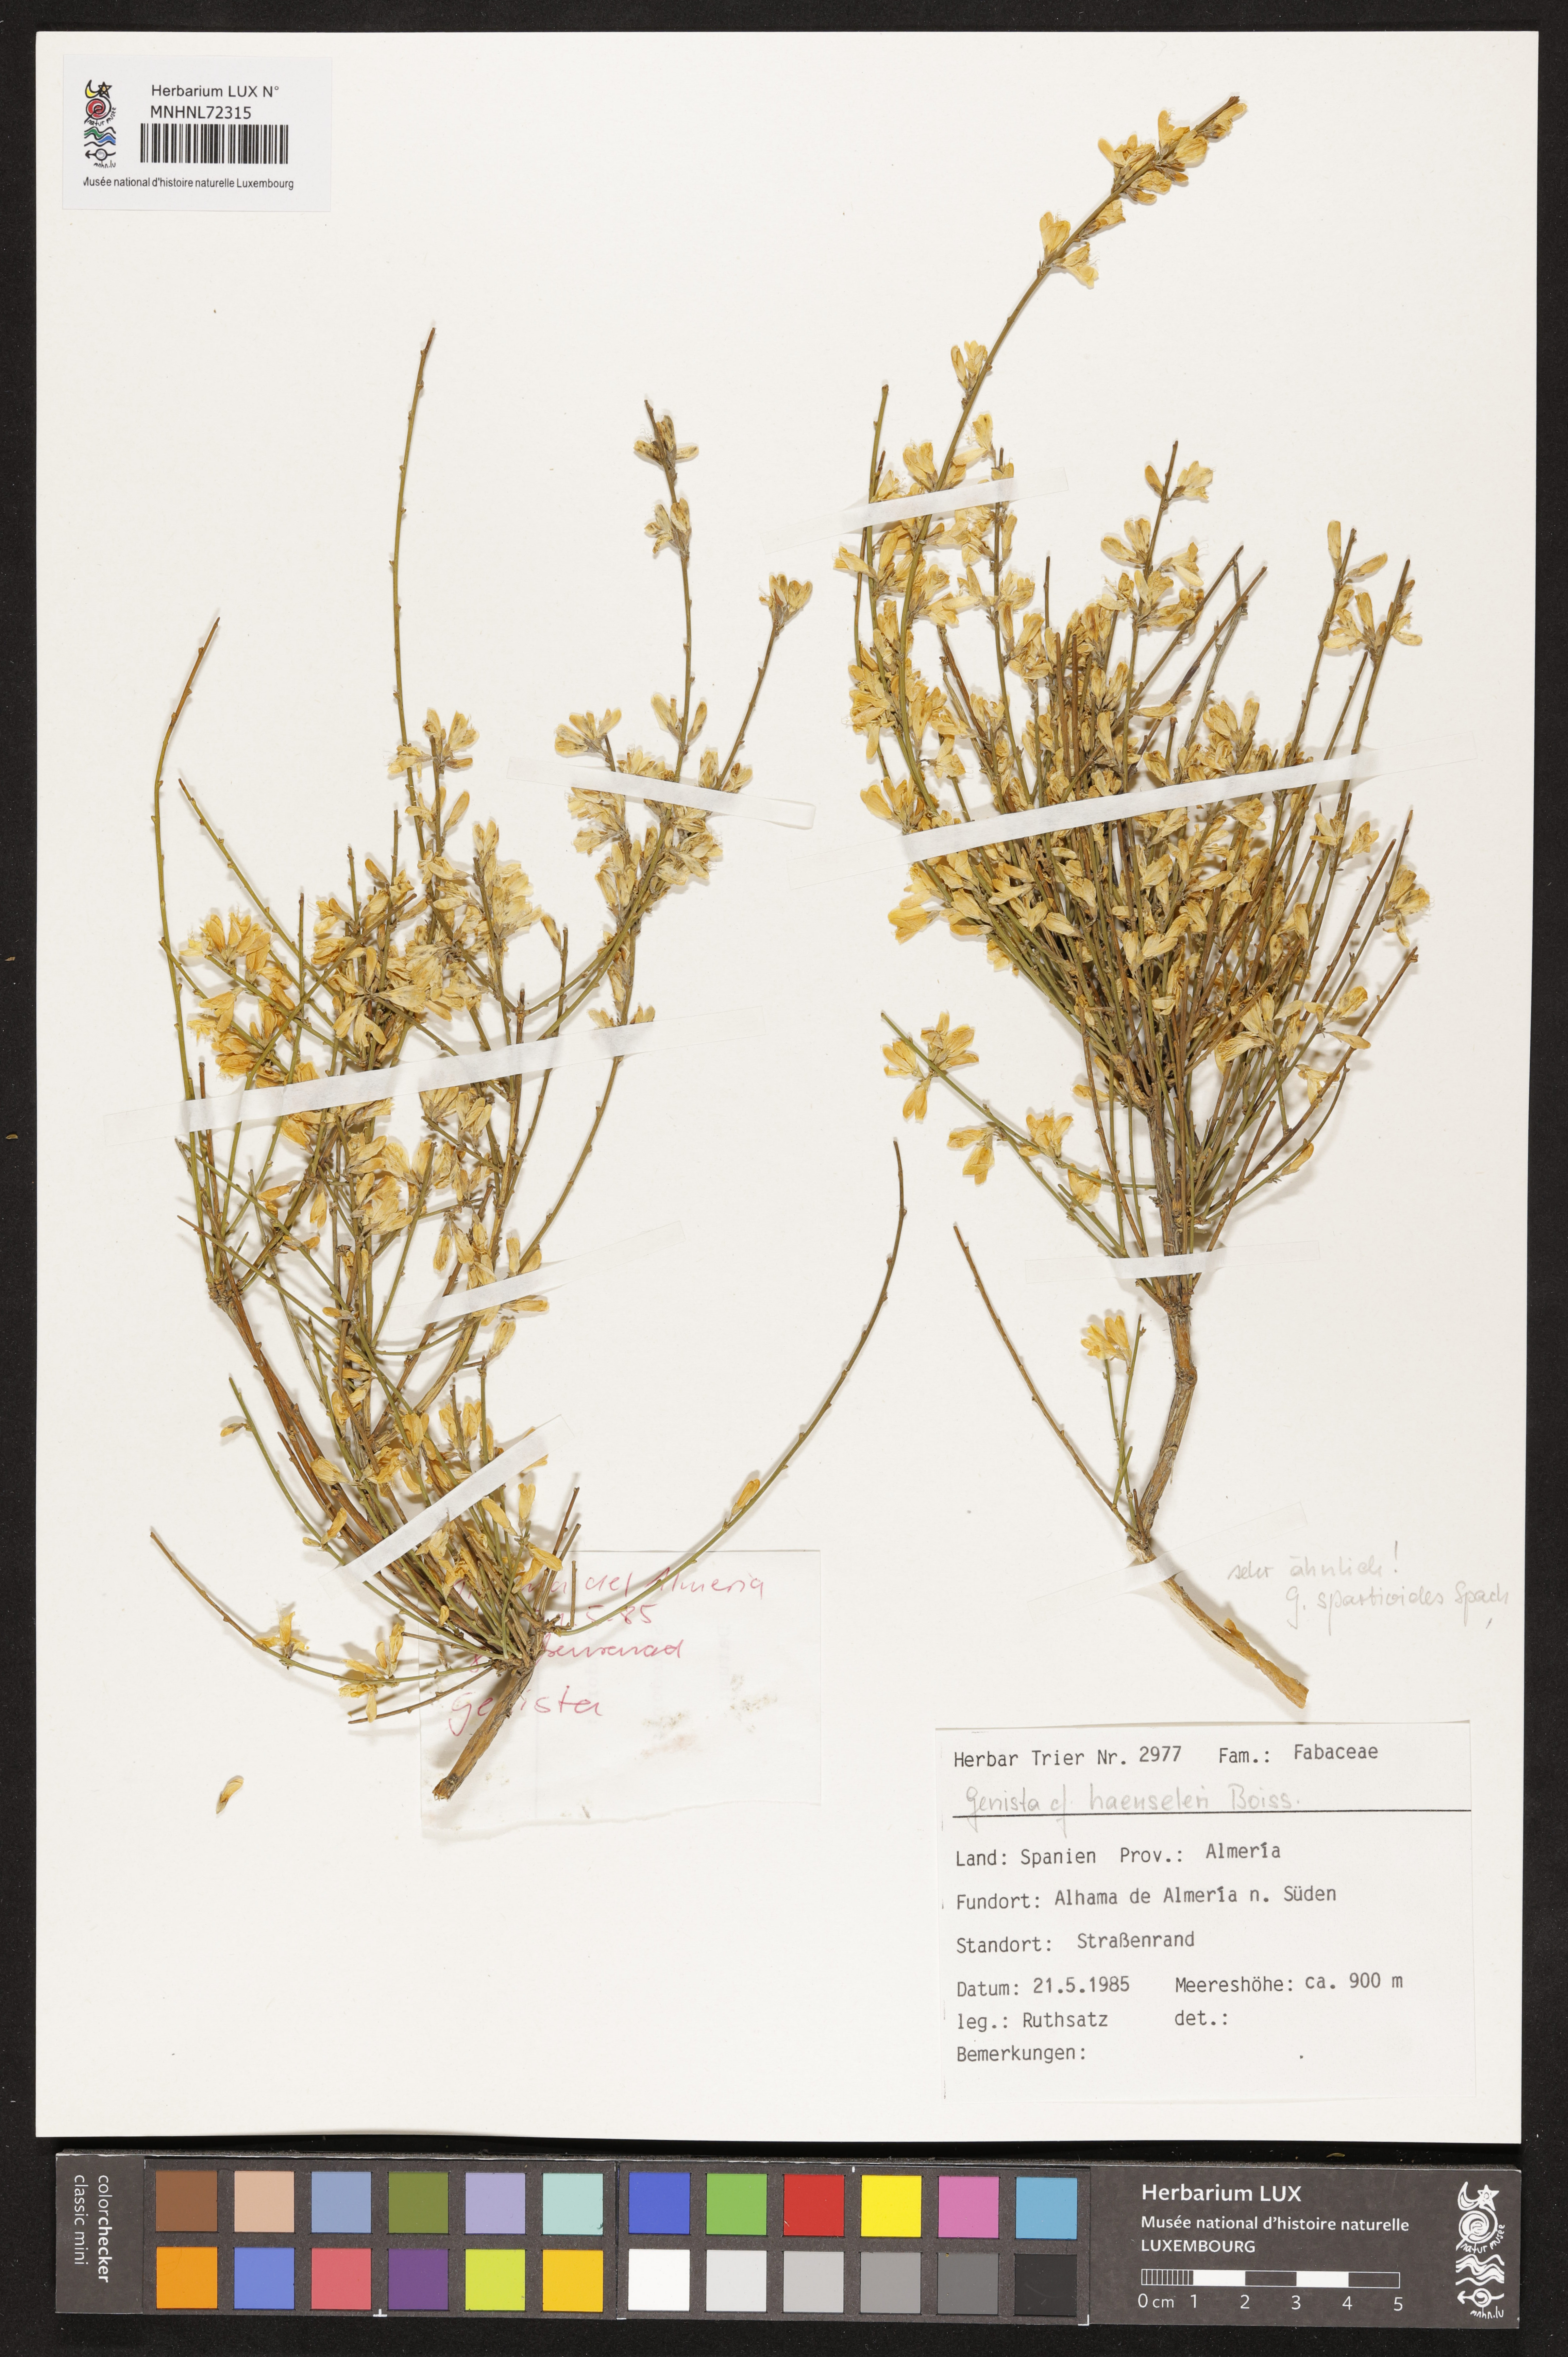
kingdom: Plantae
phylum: Tracheophyta
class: Magnoliopsida
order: Fabales
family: Fabaceae
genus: Genista
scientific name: Genista haensleri
